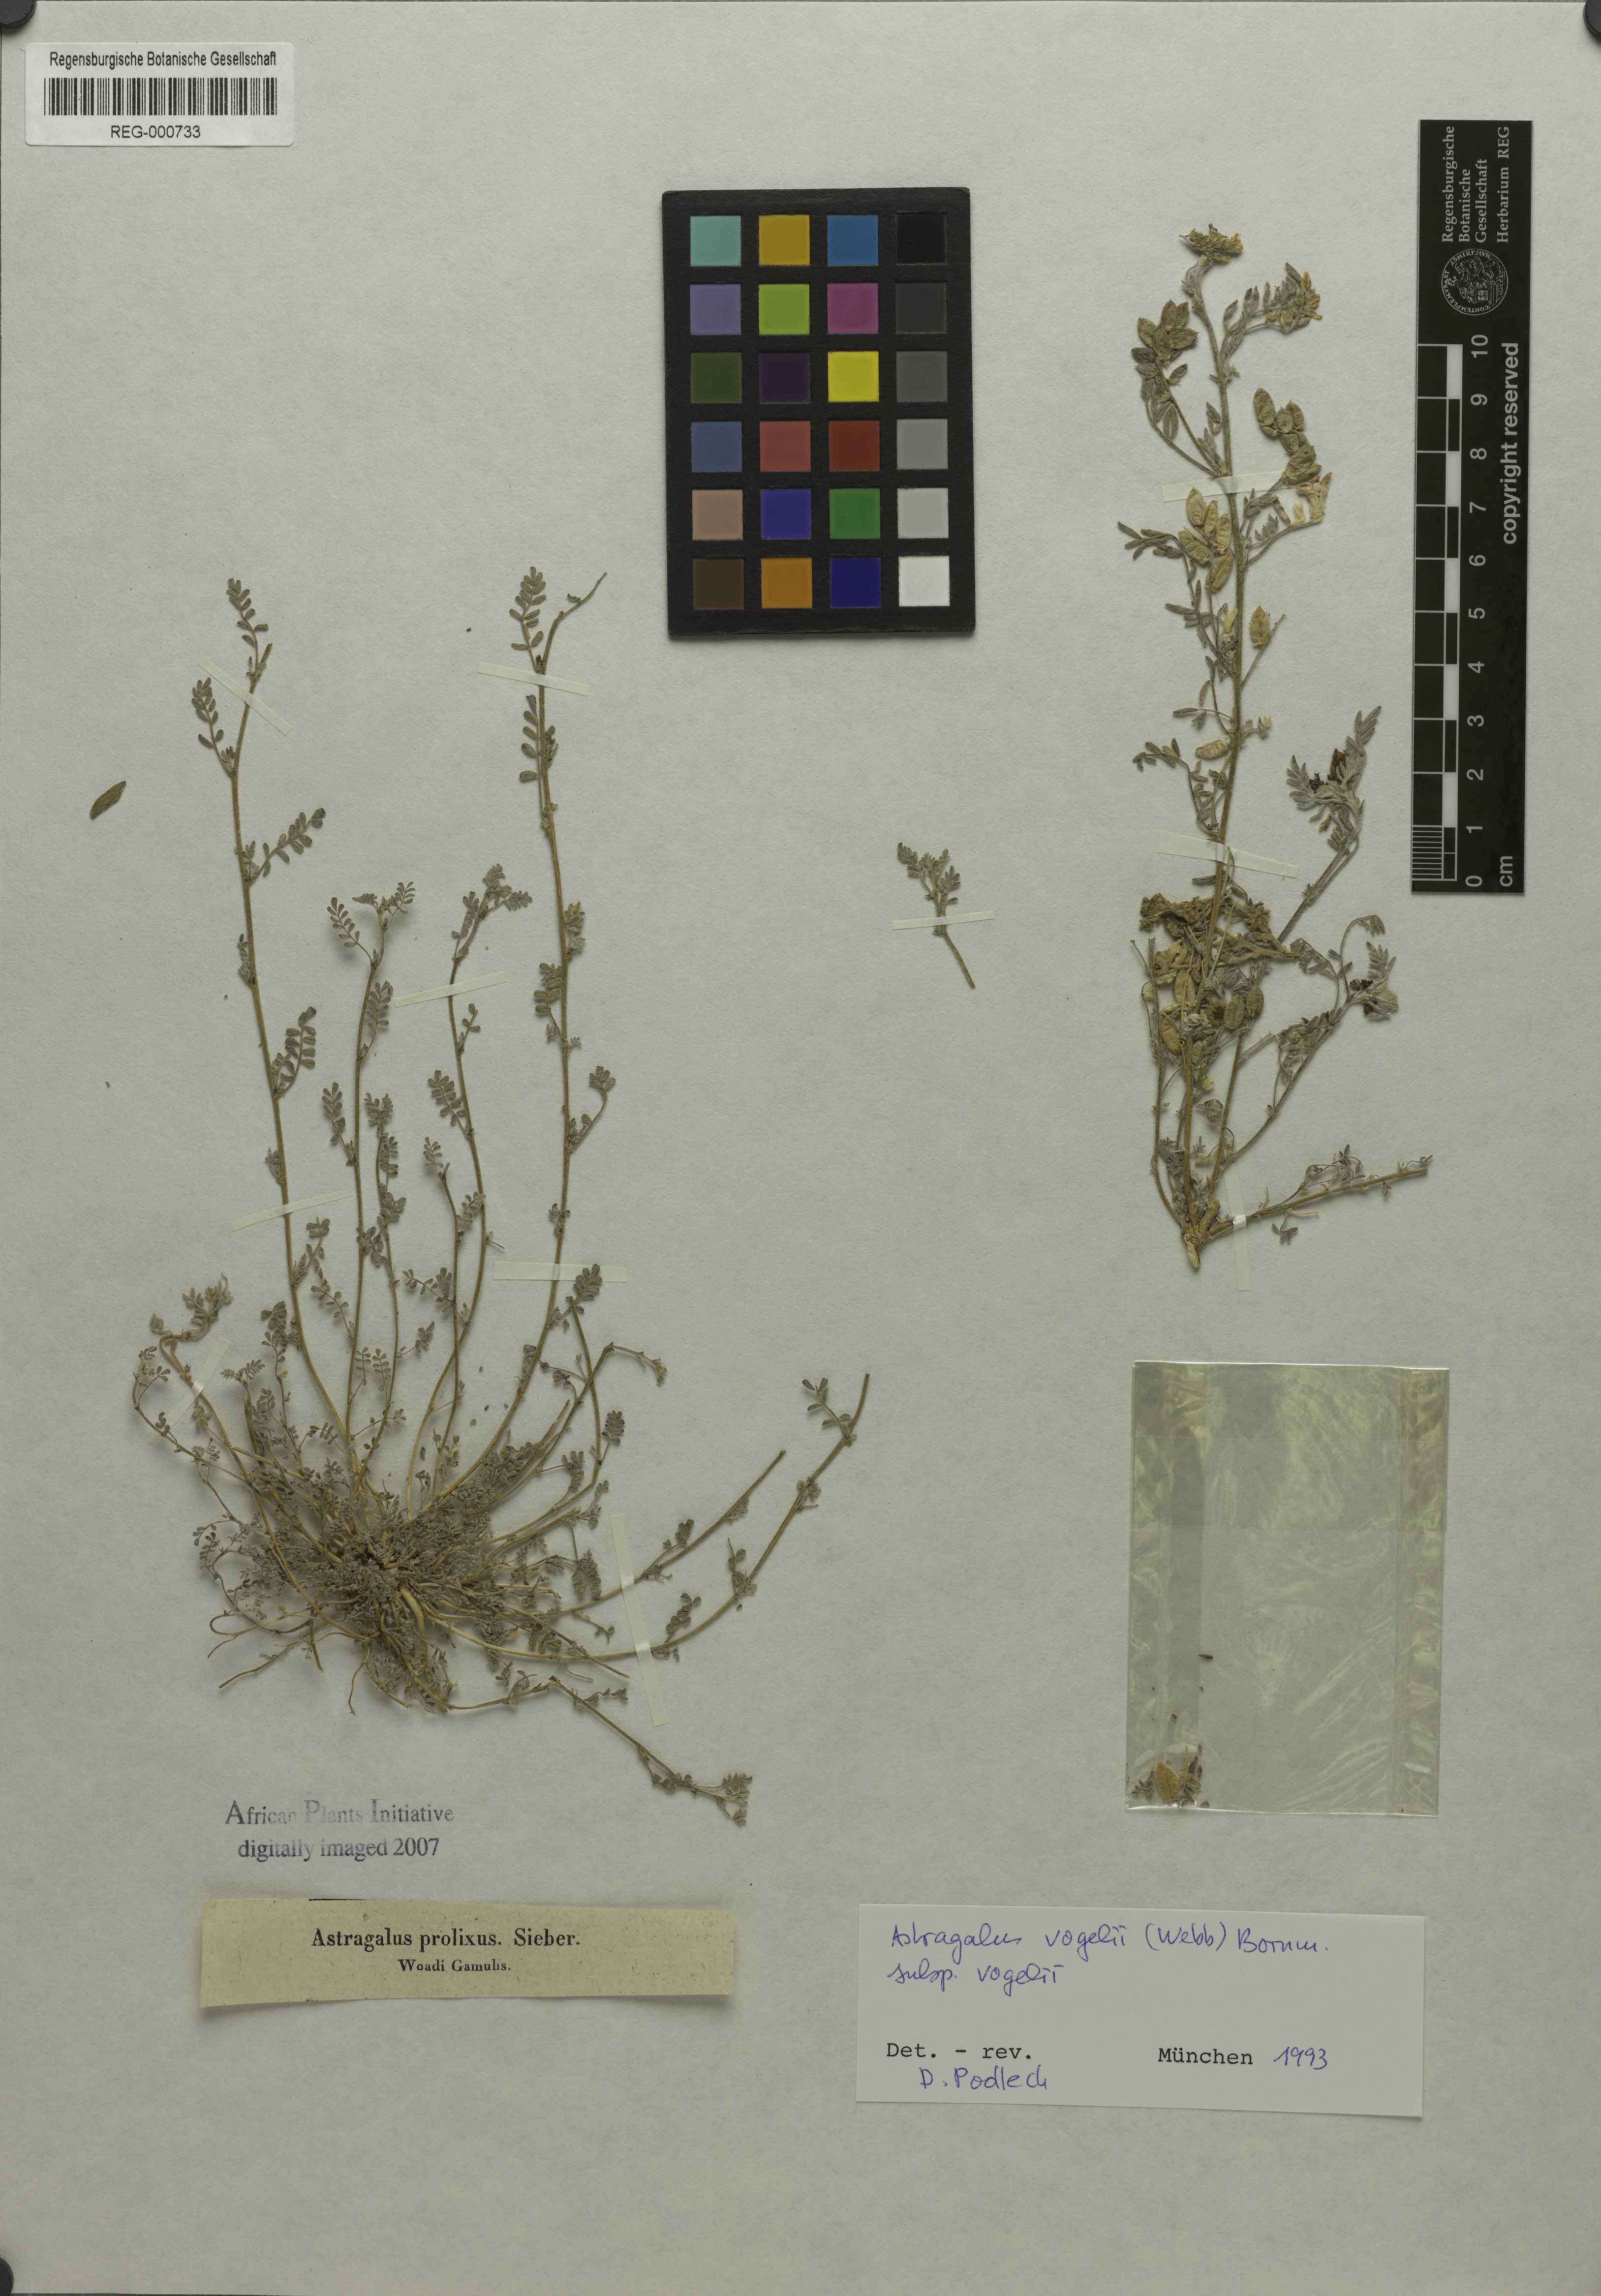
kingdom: Plantae
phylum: Tracheophyta
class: Magnoliopsida
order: Fabales
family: Fabaceae
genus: Astragalus
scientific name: Astragalus vogelii
